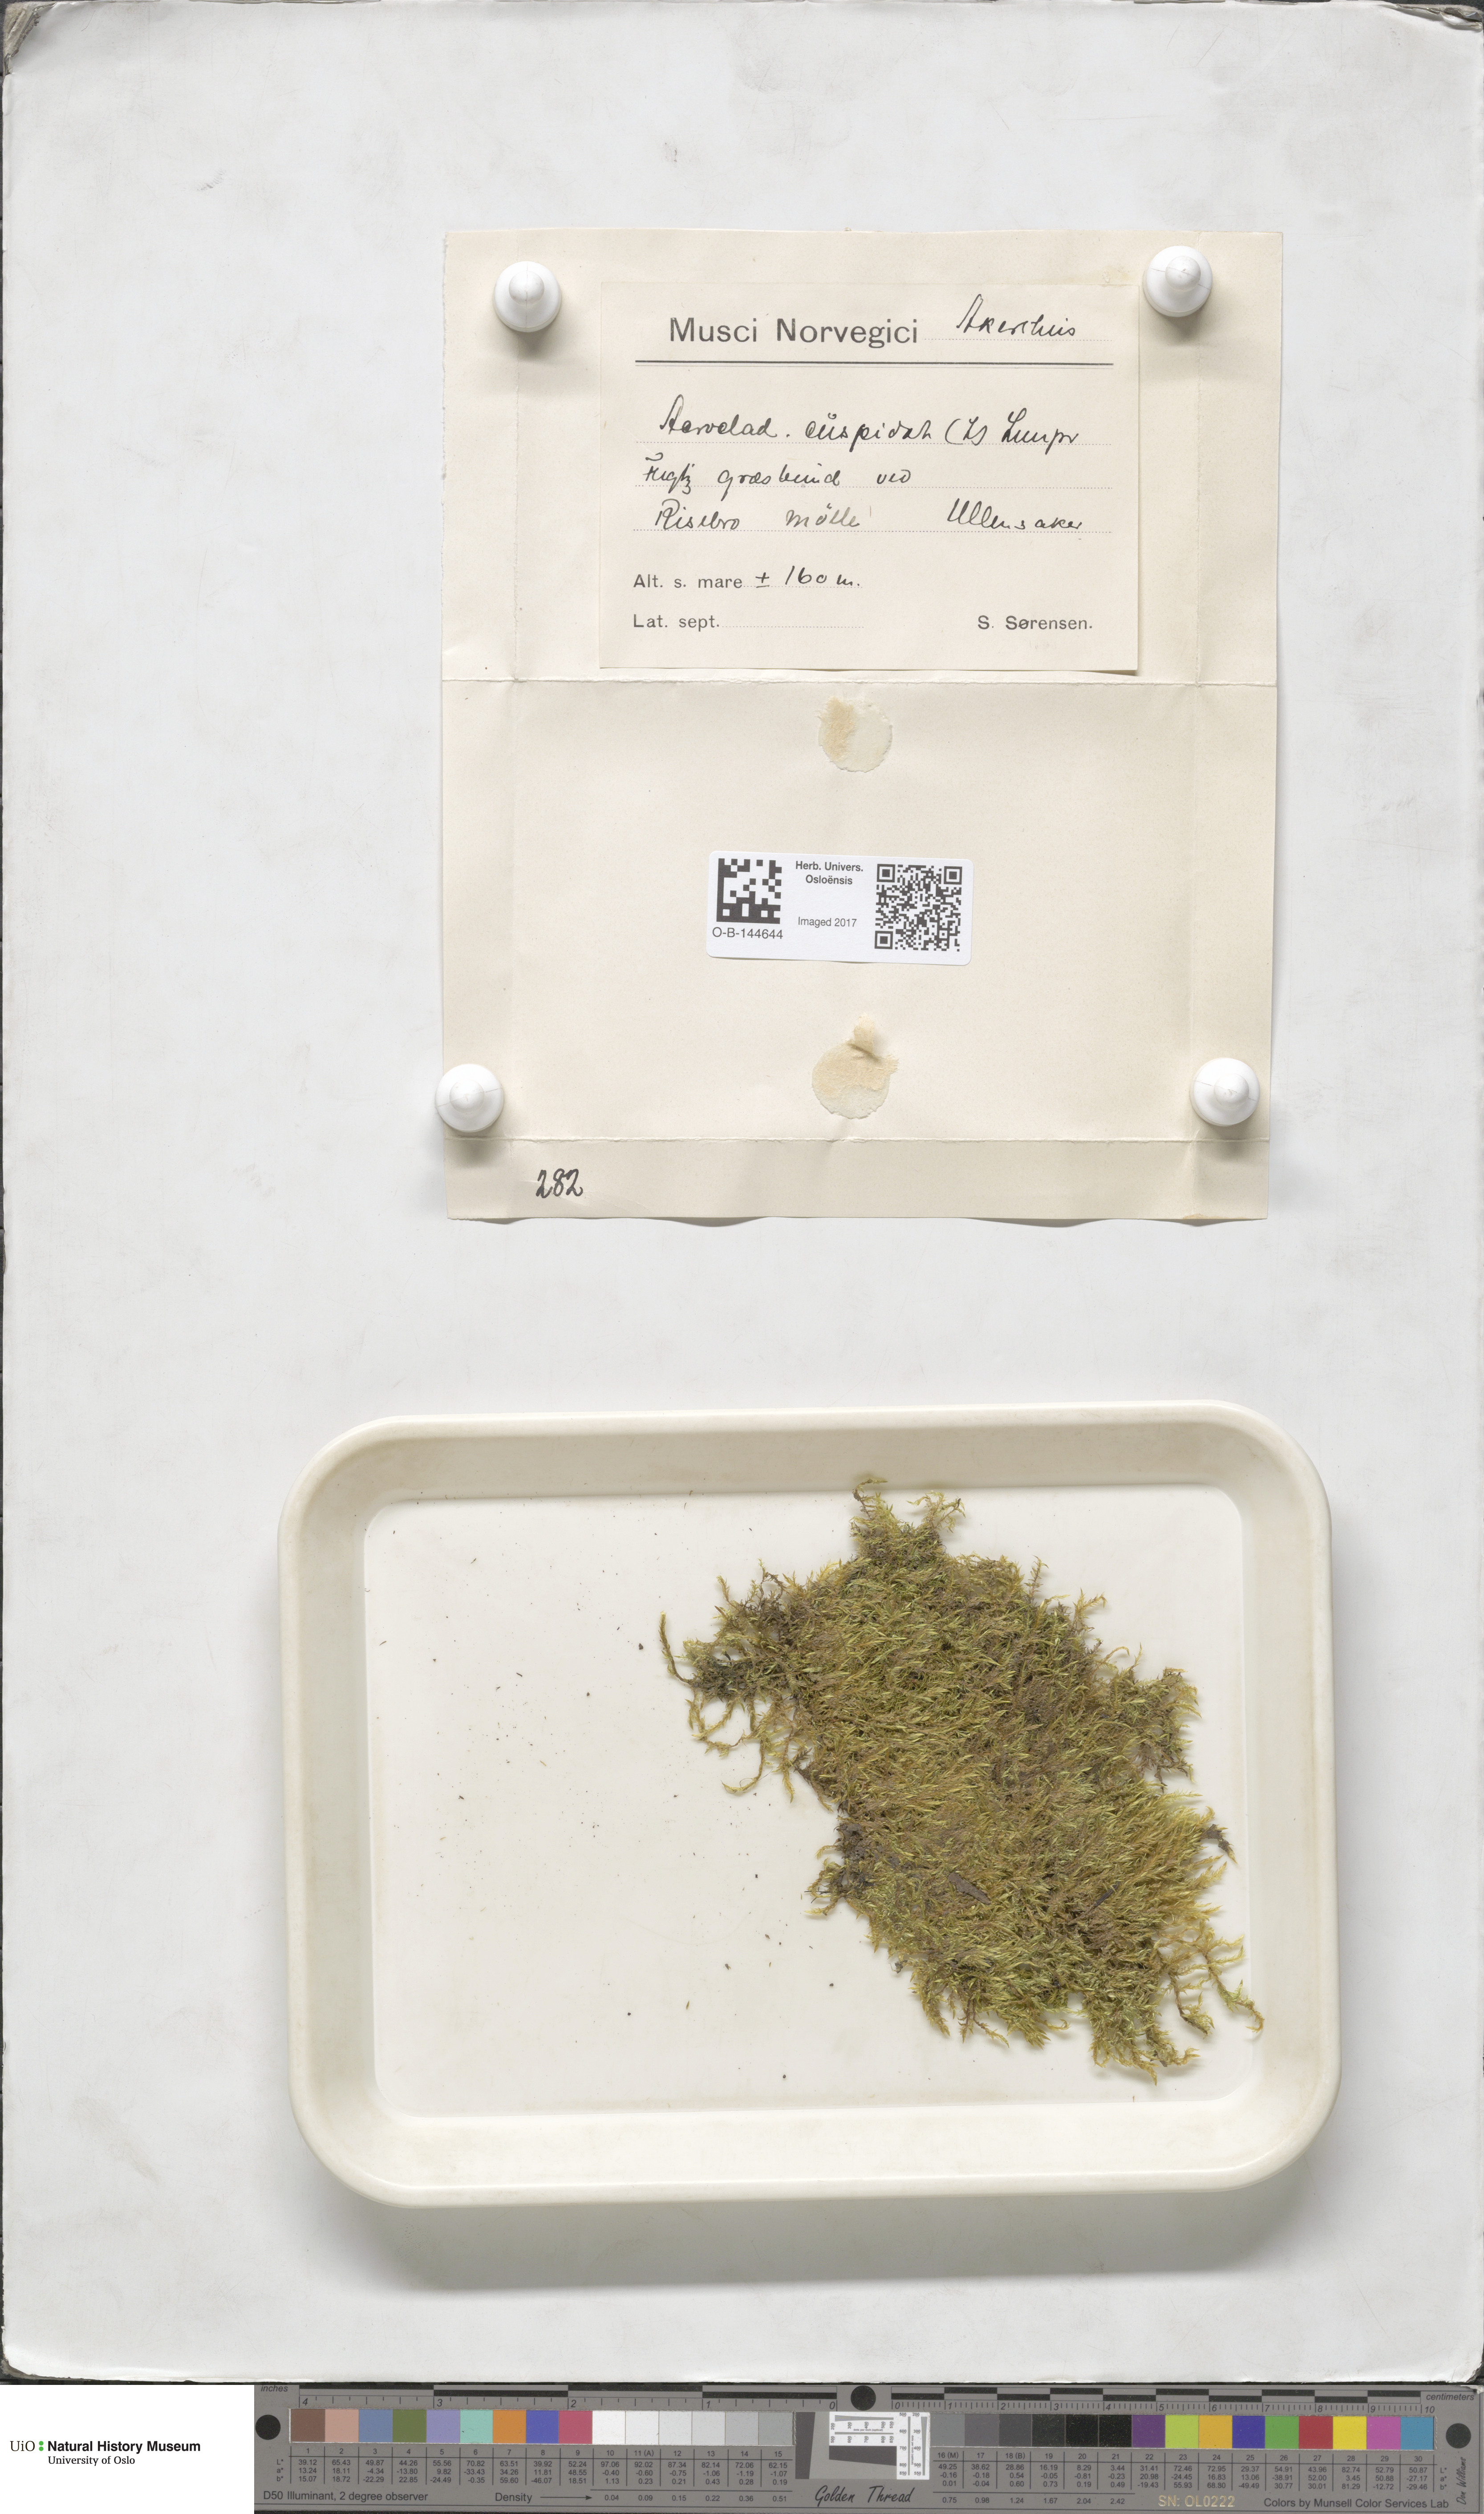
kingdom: Plantae
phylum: Bryophyta
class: Bryopsida
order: Hypnales
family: Pylaisiaceae
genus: Calliergonella
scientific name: Calliergonella cuspidata
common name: Common large wetland moss
